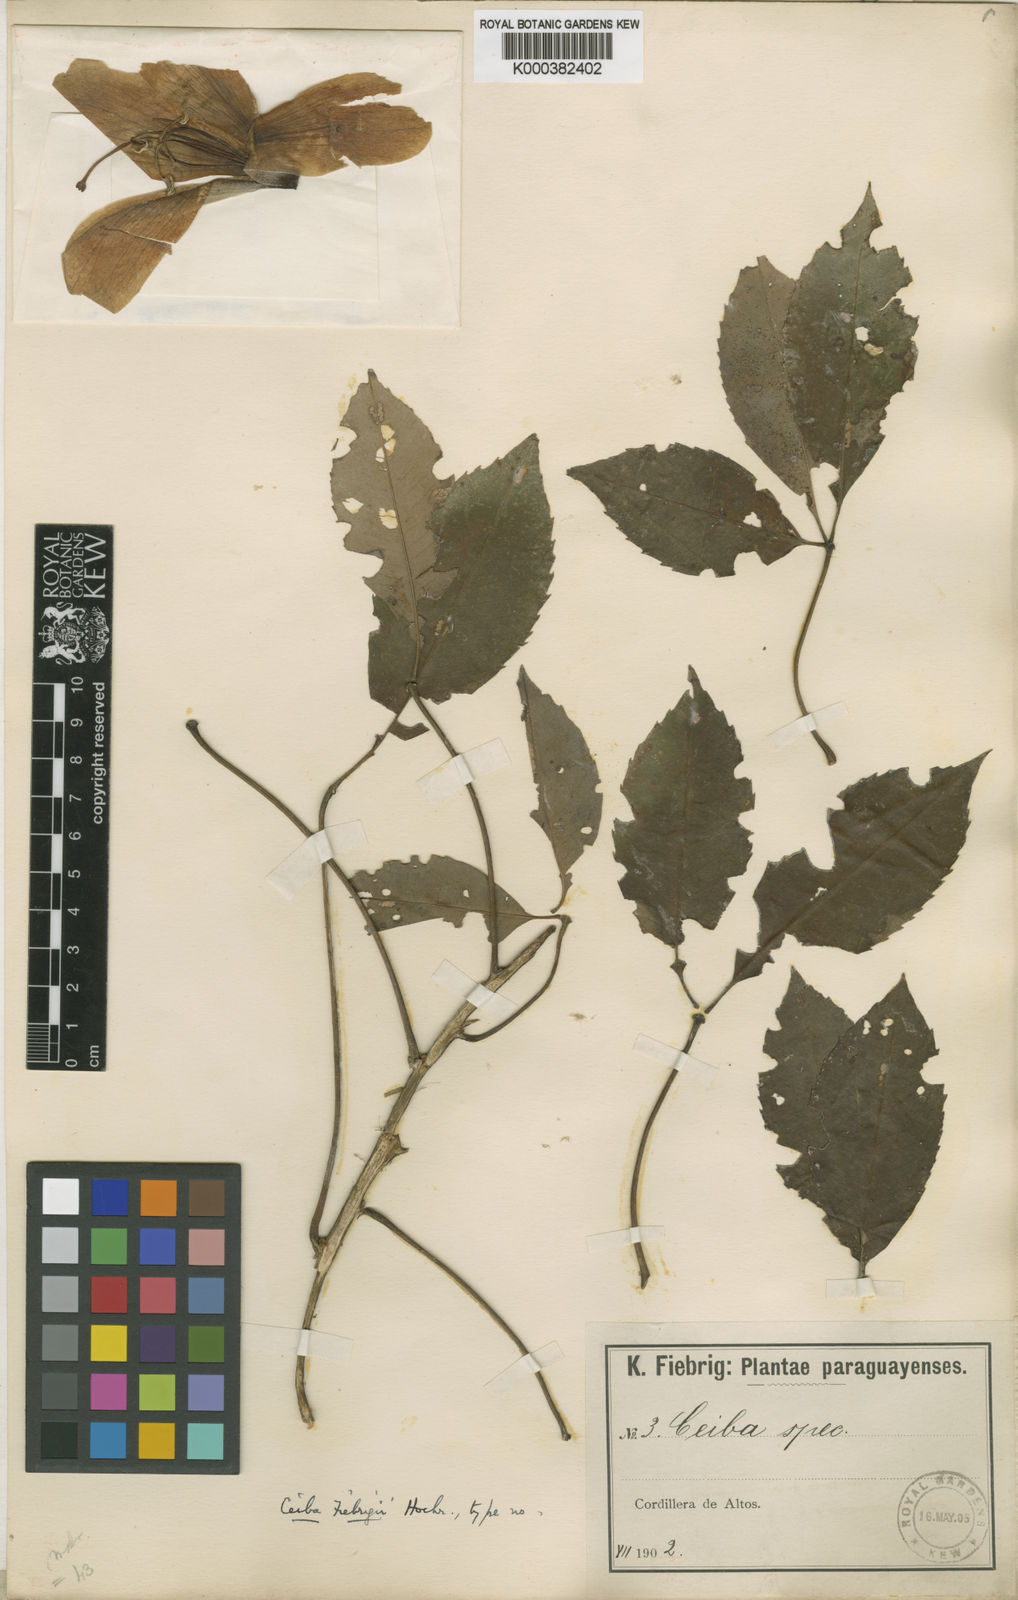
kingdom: Plantae
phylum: Tracheophyta
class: Magnoliopsida
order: Malvales
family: Malvaceae
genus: Ceiba
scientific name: Ceiba pubiflora
